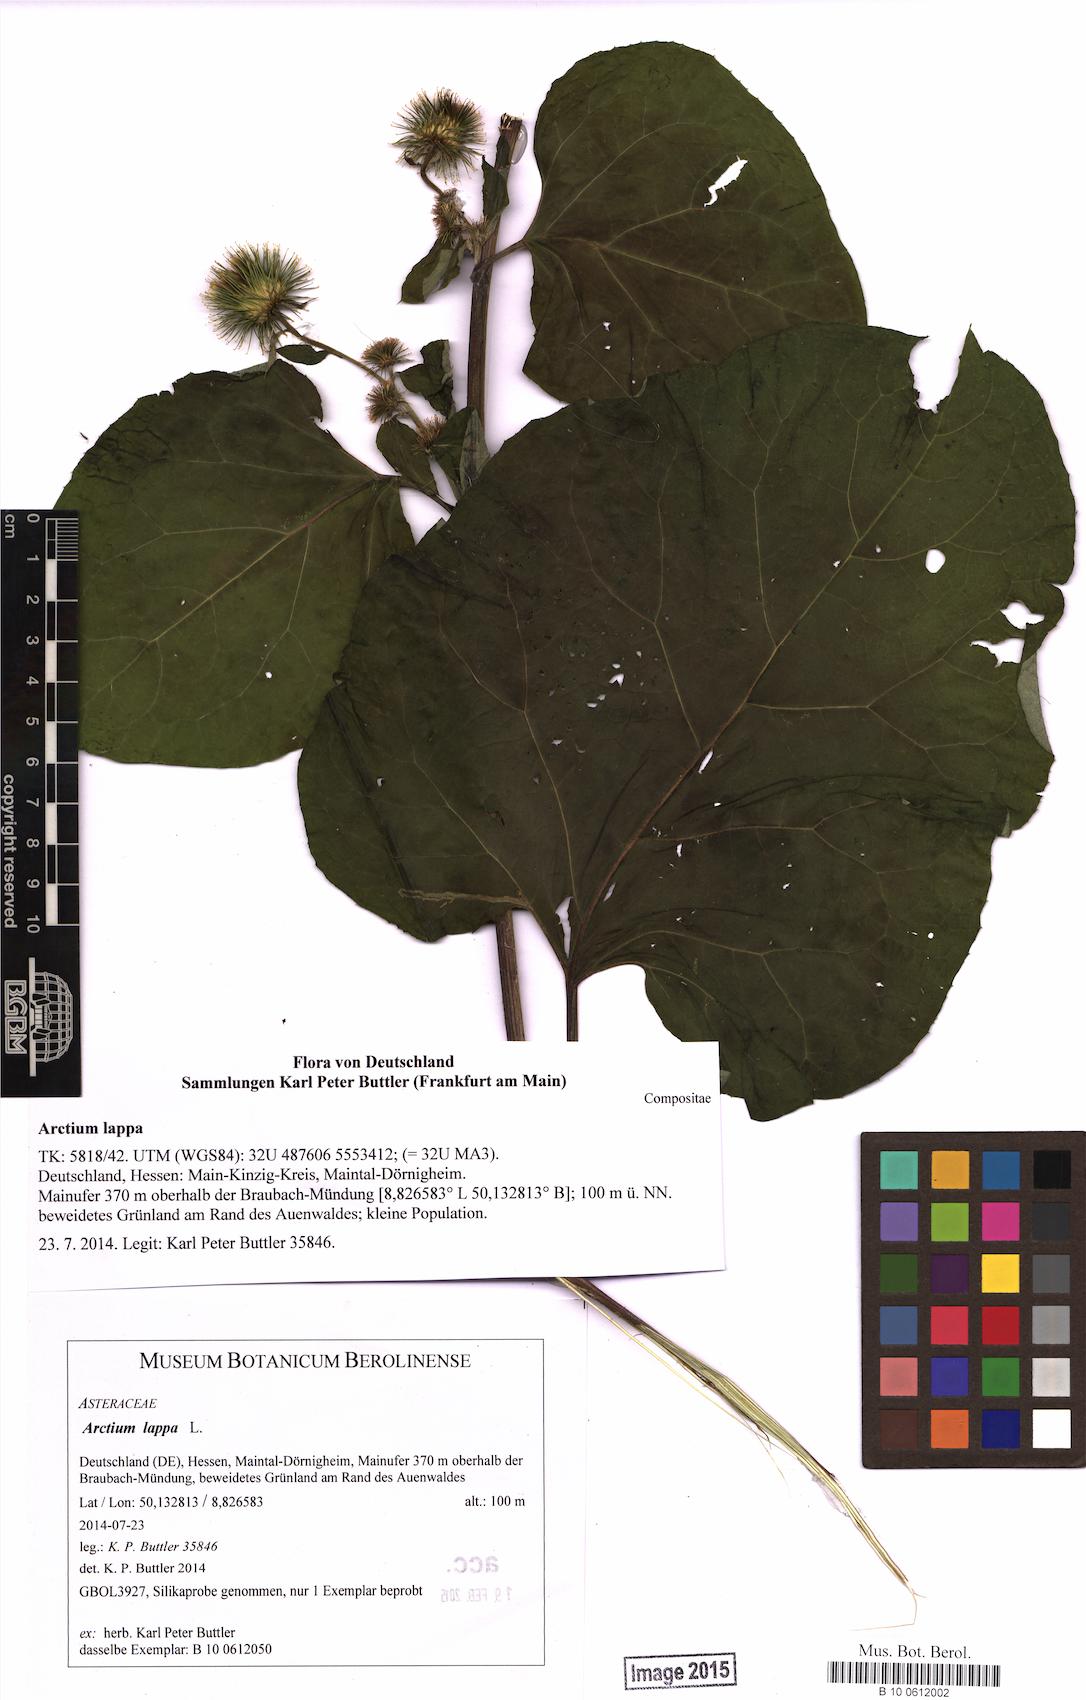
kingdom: Plantae
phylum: Tracheophyta
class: Magnoliopsida
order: Asterales
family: Asteraceae
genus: Arctium
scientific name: Arctium lappa
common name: Greater burdock
